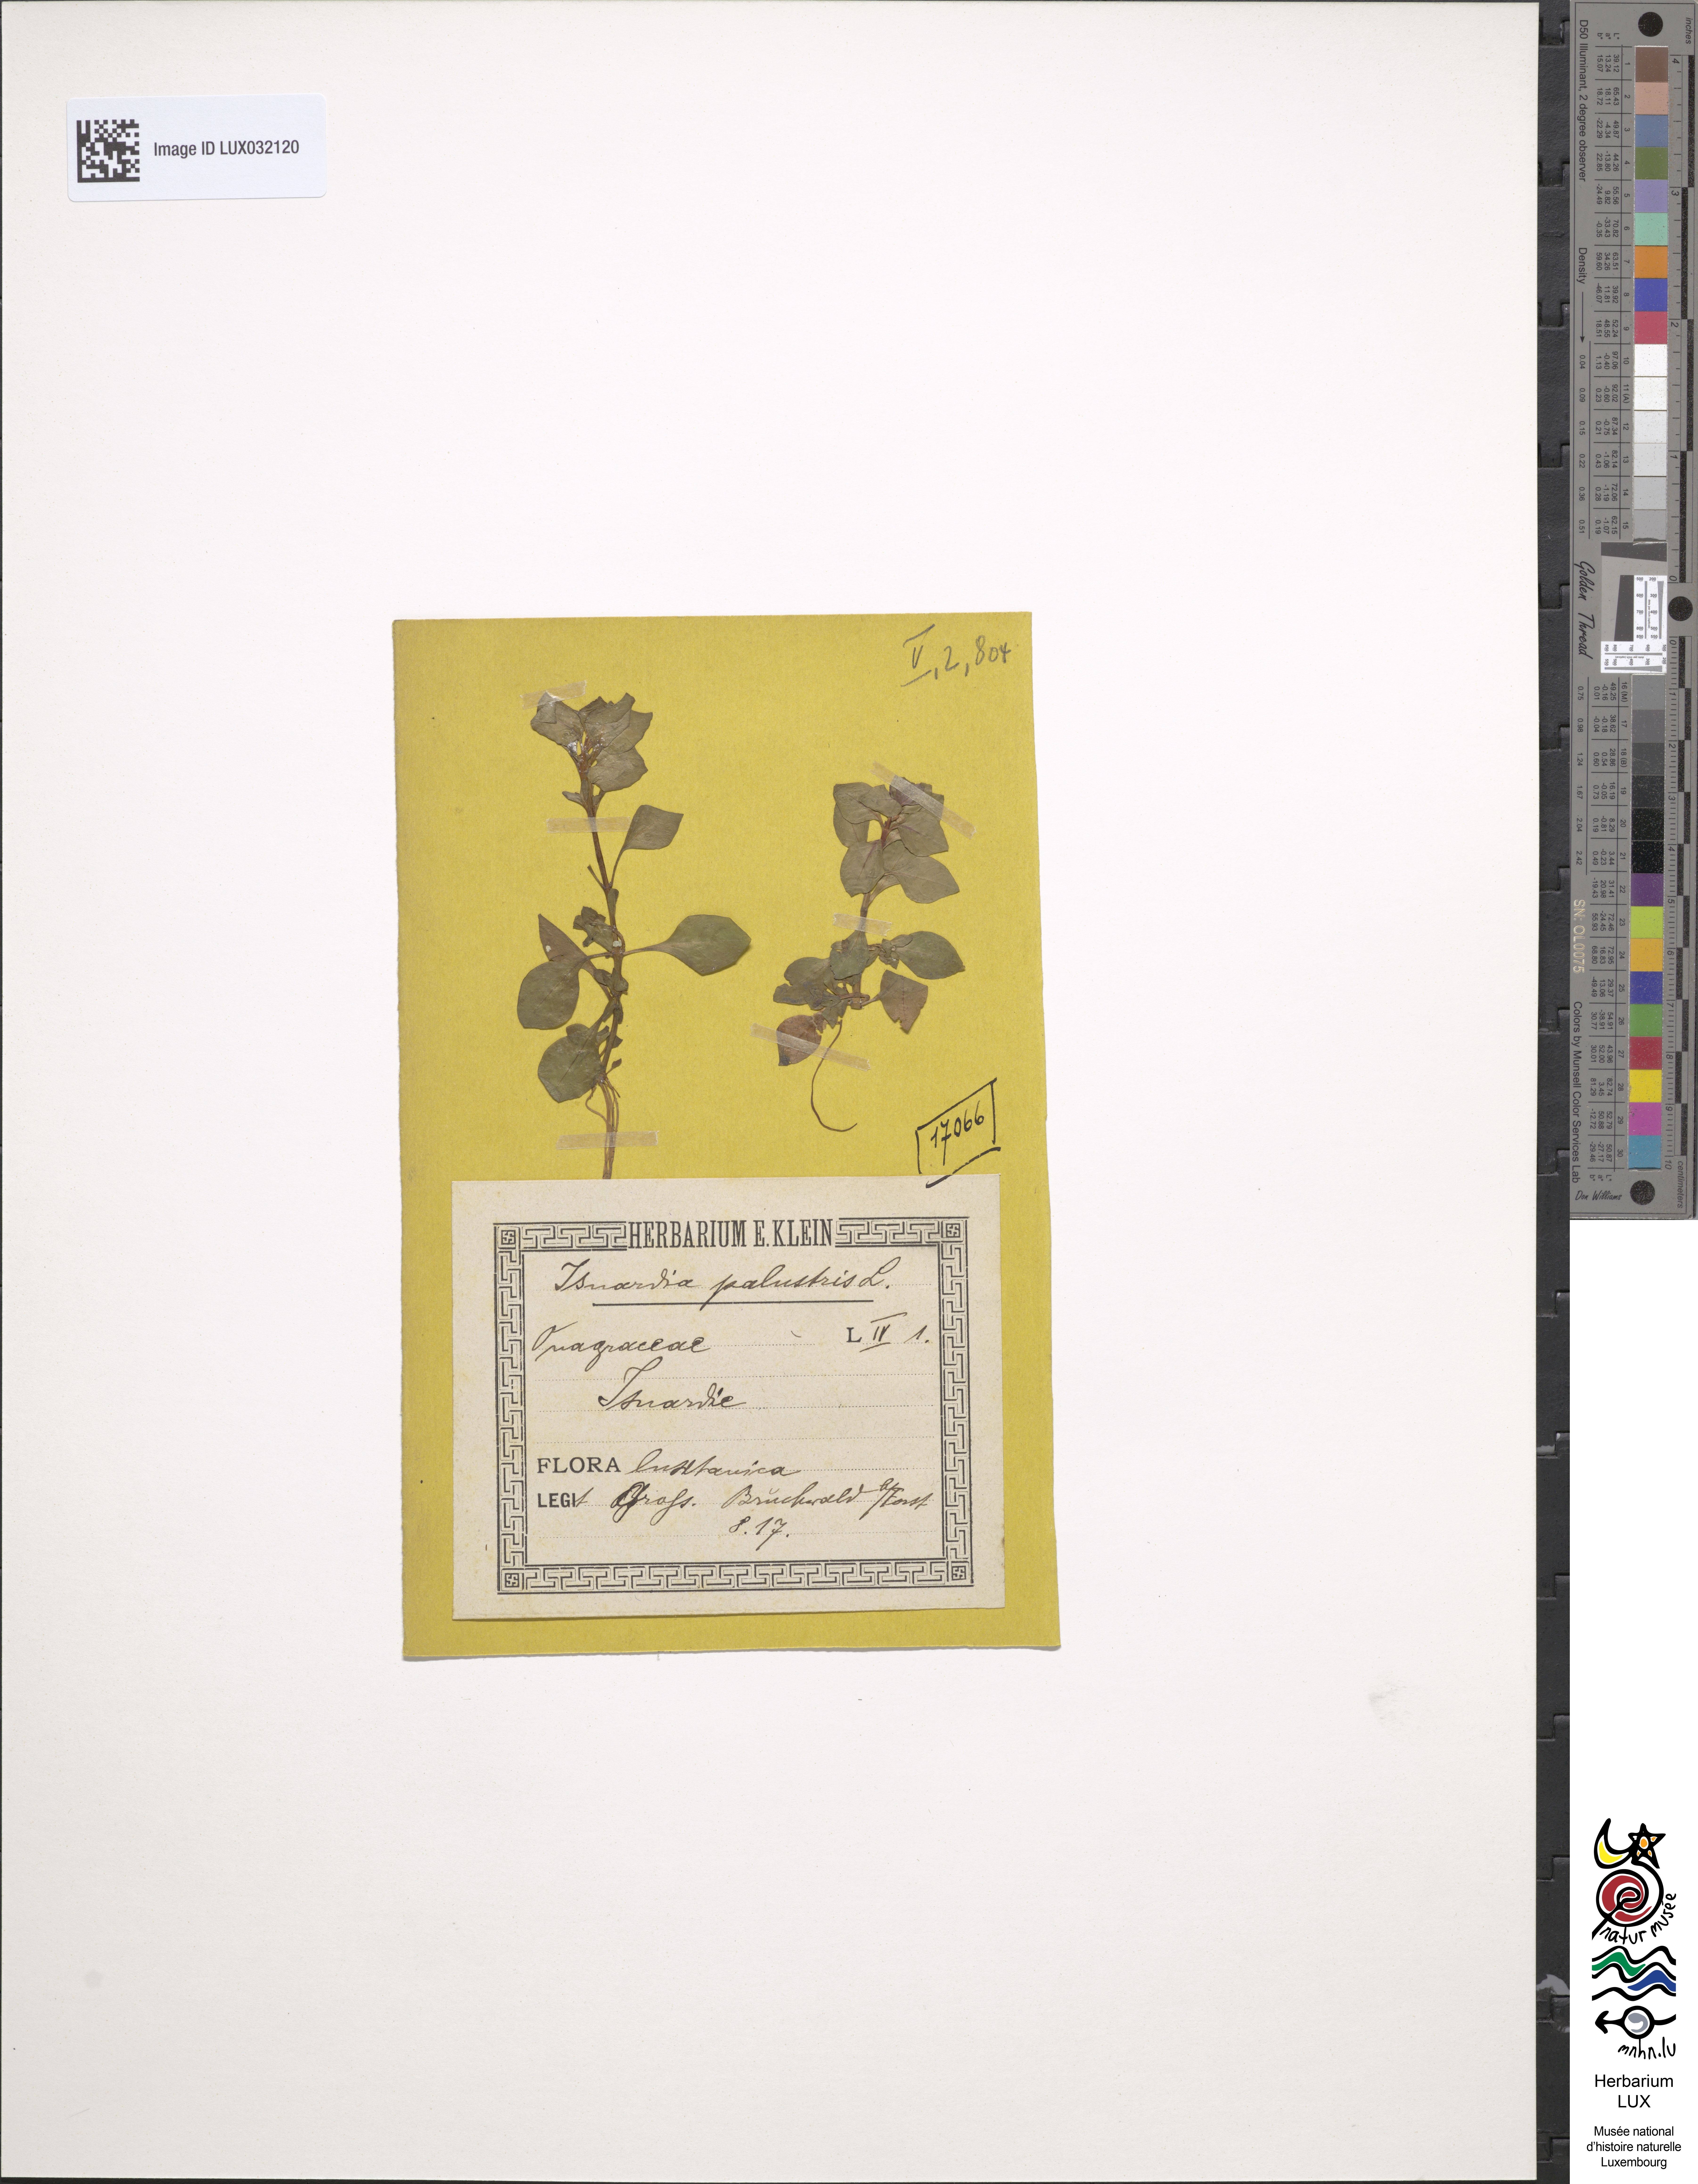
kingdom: Plantae
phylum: Tracheophyta
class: Magnoliopsida
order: Myrtales
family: Onagraceae
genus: Ludwigia
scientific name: Ludwigia palustris
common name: Hampshire-purslane
